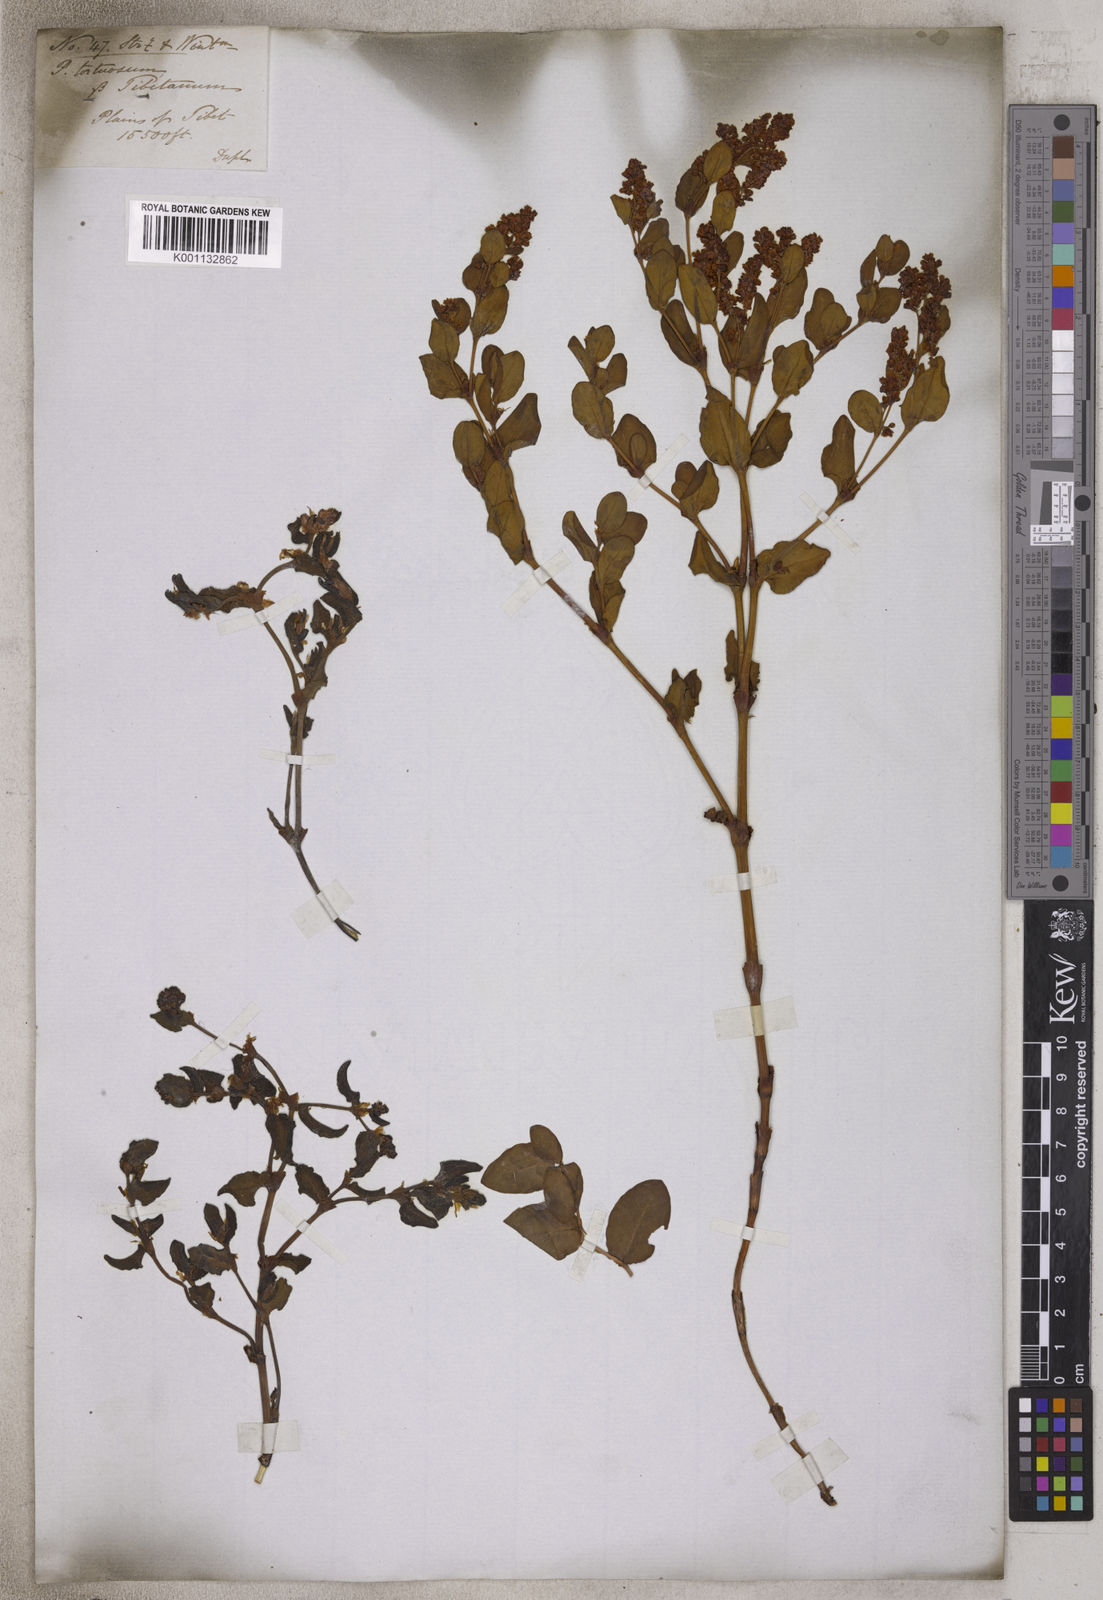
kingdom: Plantae
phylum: Tracheophyta
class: Magnoliopsida
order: Caryophyllales
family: Polygonaceae
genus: Koenigia
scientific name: Koenigia tortuosa
